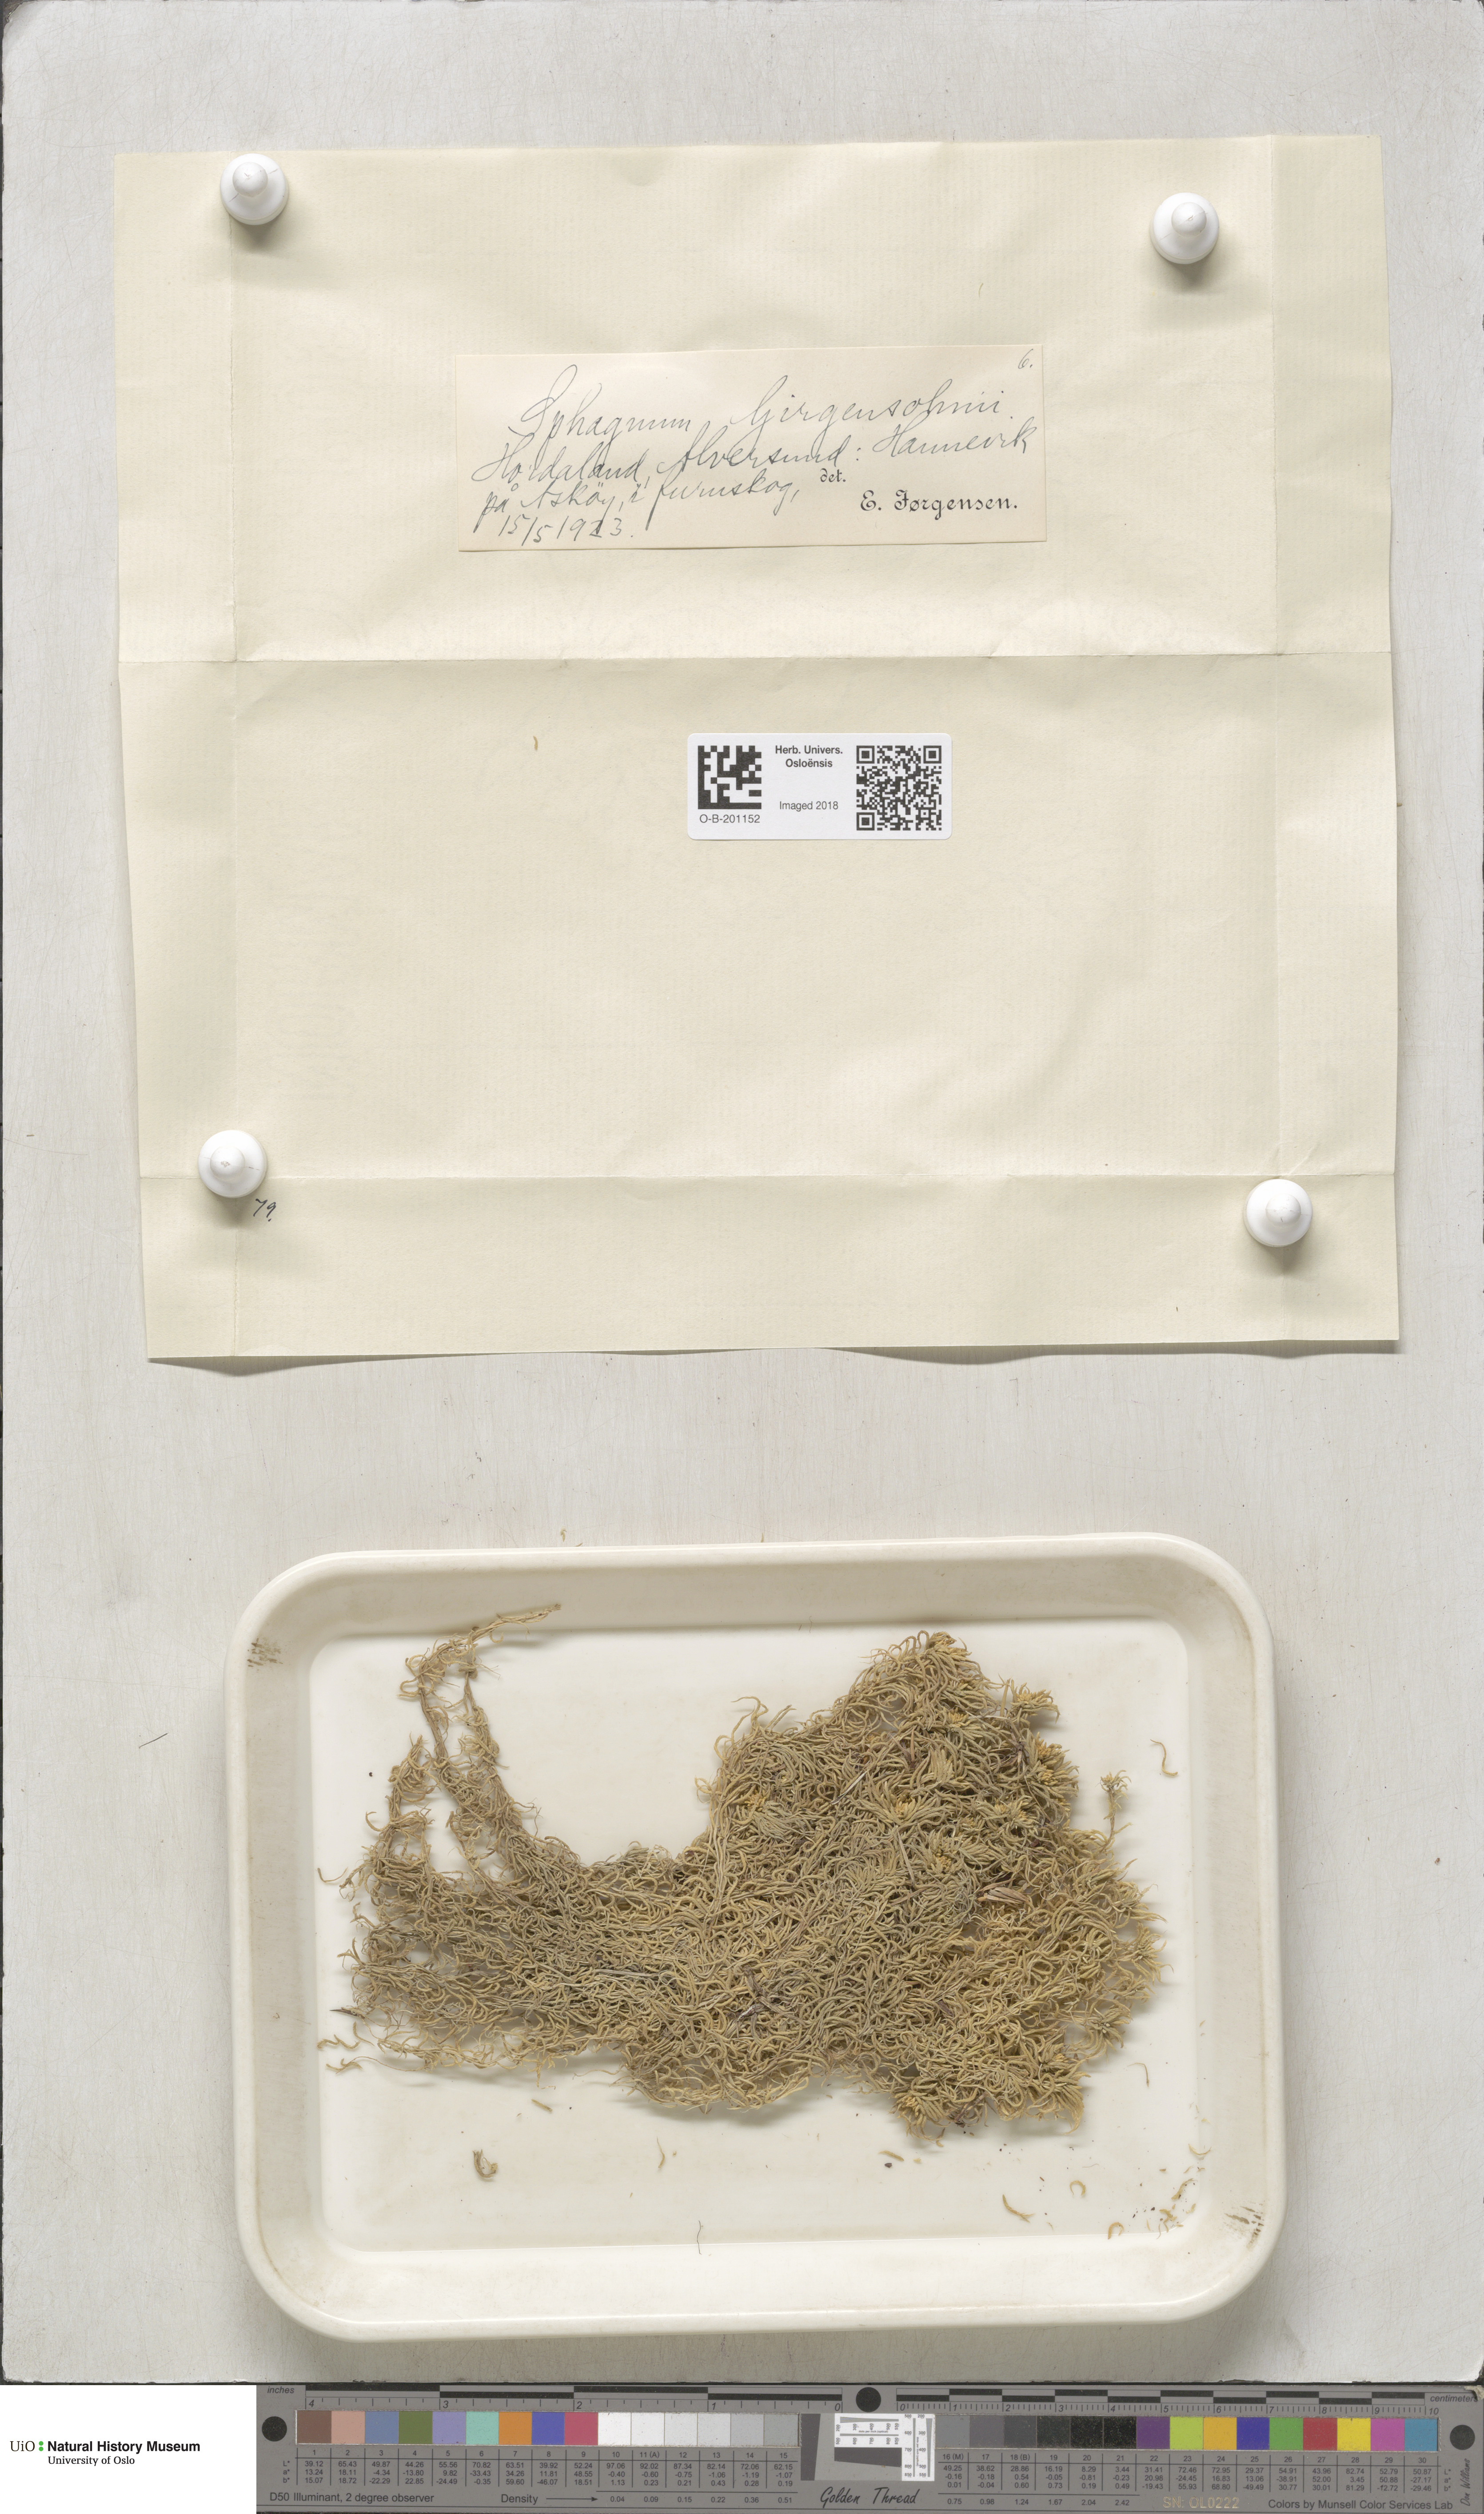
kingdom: Plantae
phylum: Bryophyta
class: Sphagnopsida
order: Sphagnales
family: Sphagnaceae
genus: Sphagnum
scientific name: Sphagnum girgensohnii
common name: Girgensohn's peat moss
